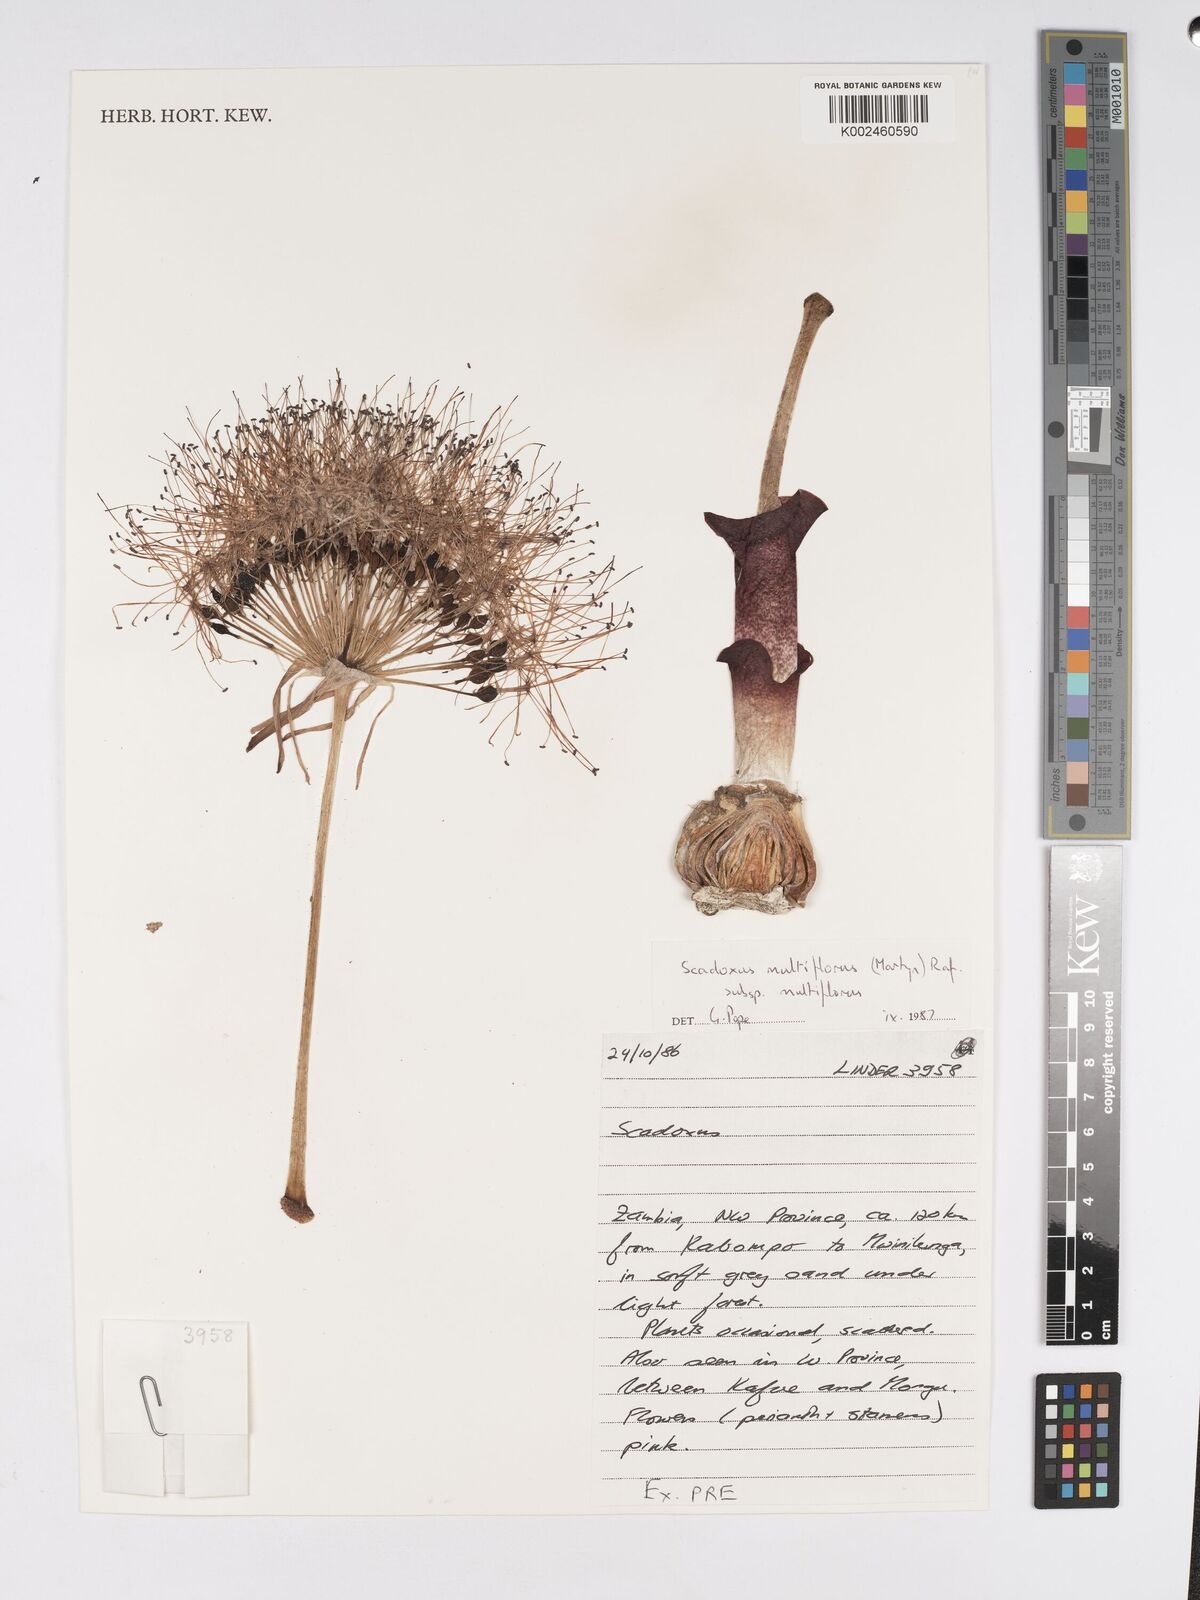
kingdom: Plantae
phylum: Tracheophyta
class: Liliopsida
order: Asparagales
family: Amaryllidaceae
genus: Scadoxus
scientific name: Scadoxus multiflorus
